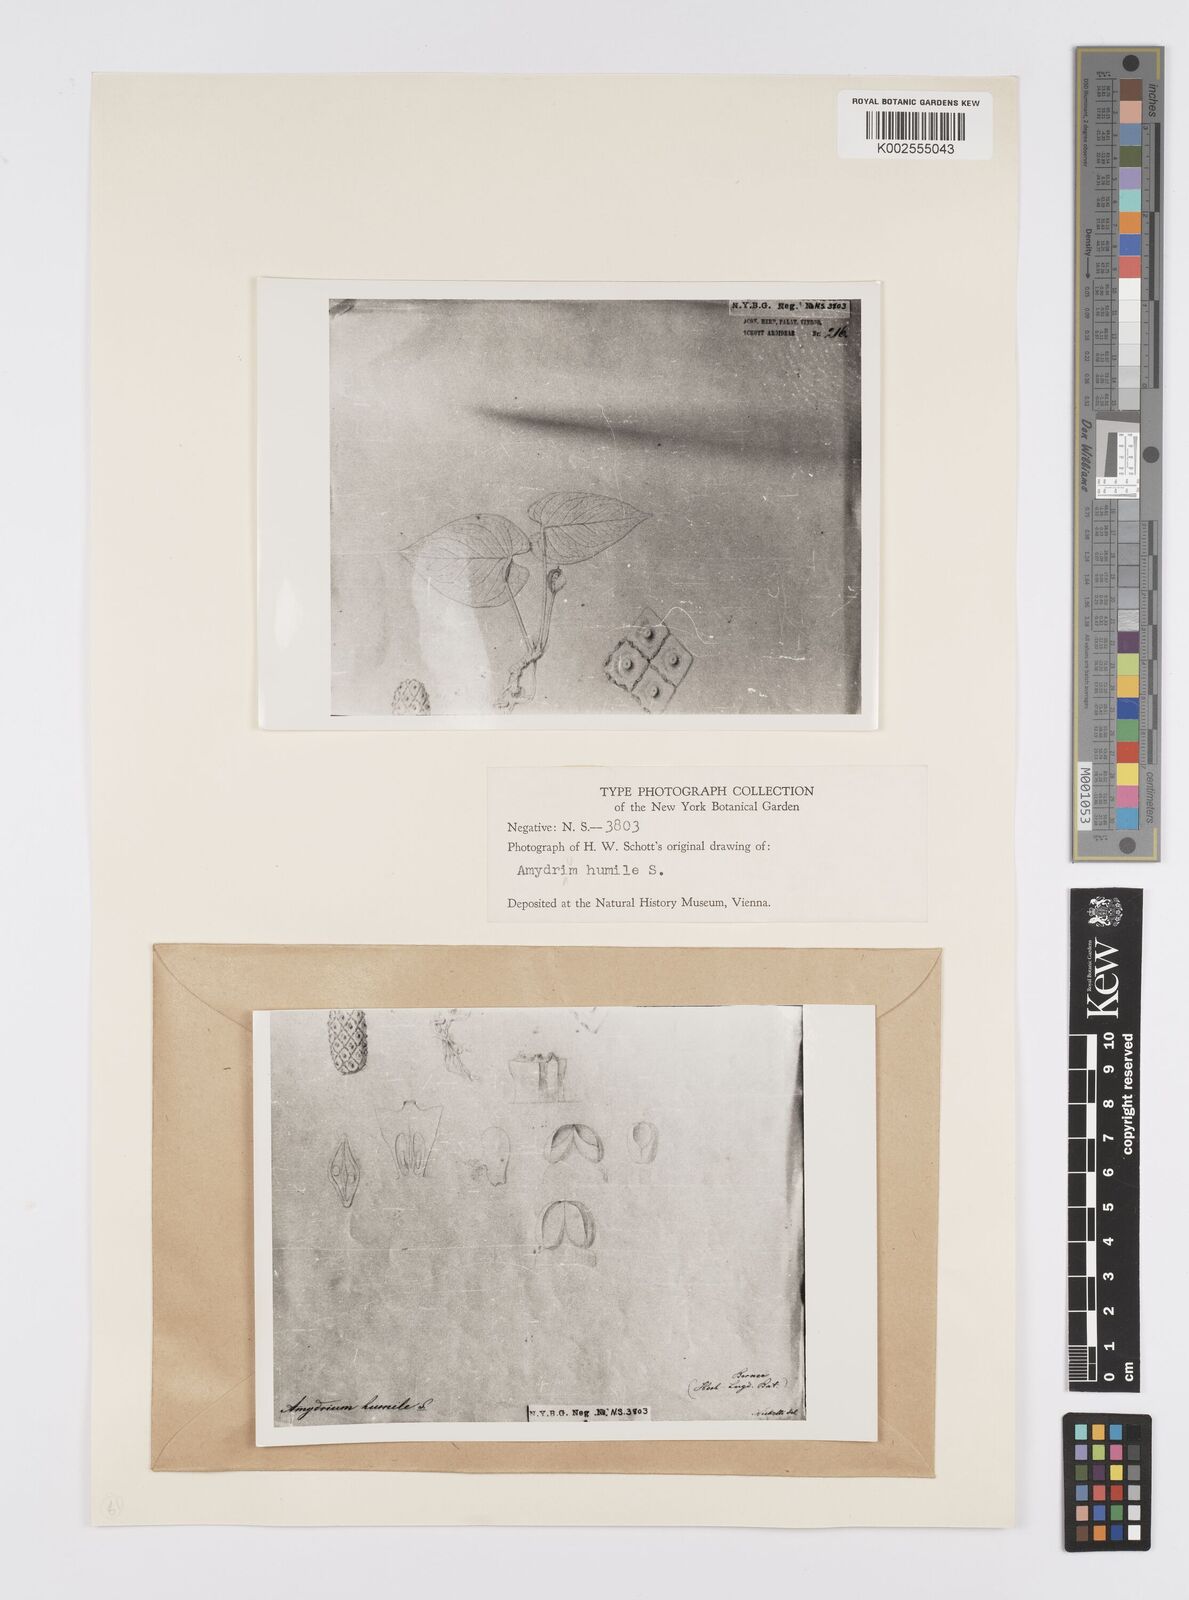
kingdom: Plantae
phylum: Tracheophyta
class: Liliopsida
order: Alismatales
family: Araceae
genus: Amydrium
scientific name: Amydrium humile
